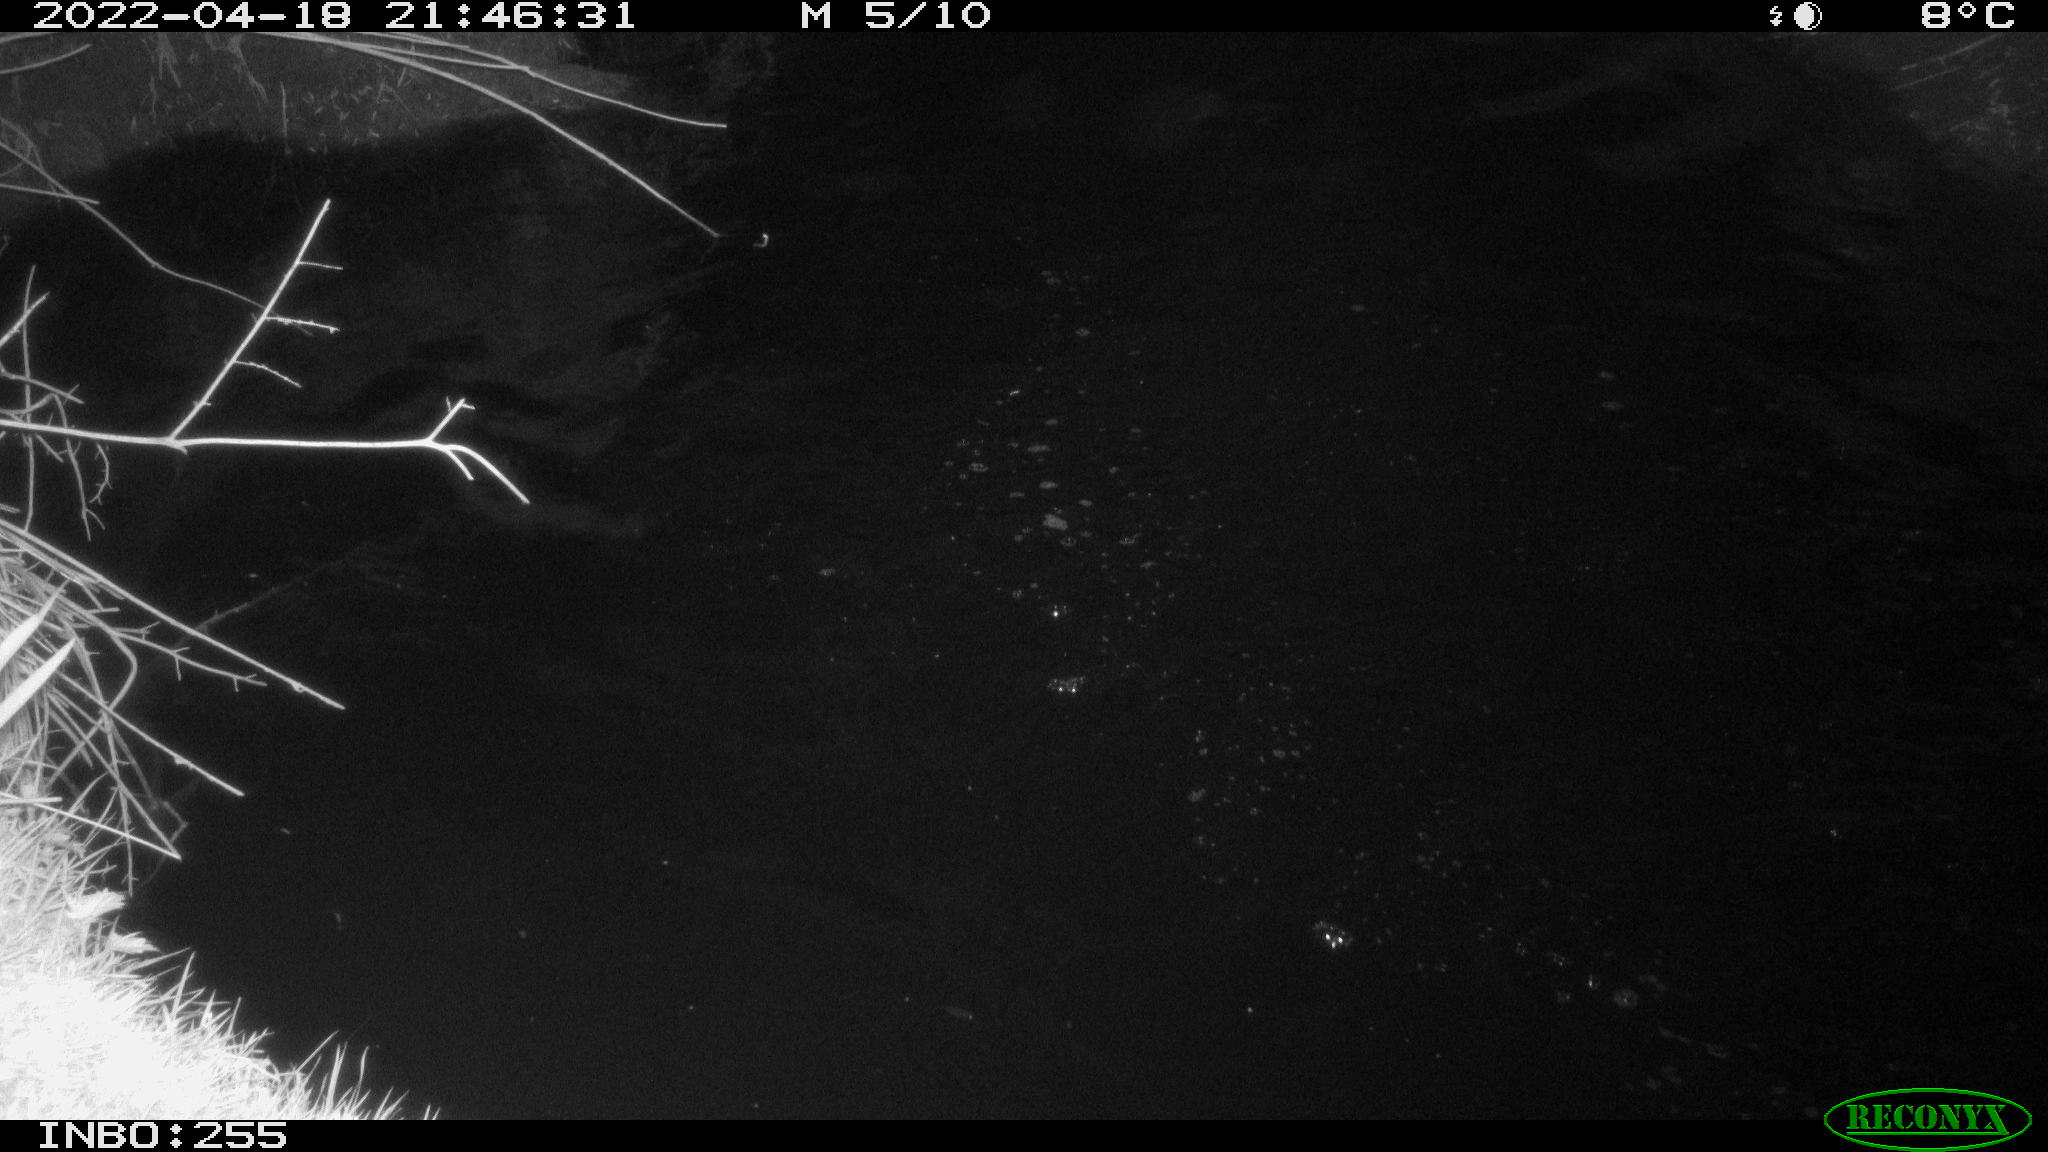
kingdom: Animalia
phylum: Chordata
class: Aves
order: Anseriformes
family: Anatidae
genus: Anas
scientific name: Anas platyrhynchos
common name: Mallard
